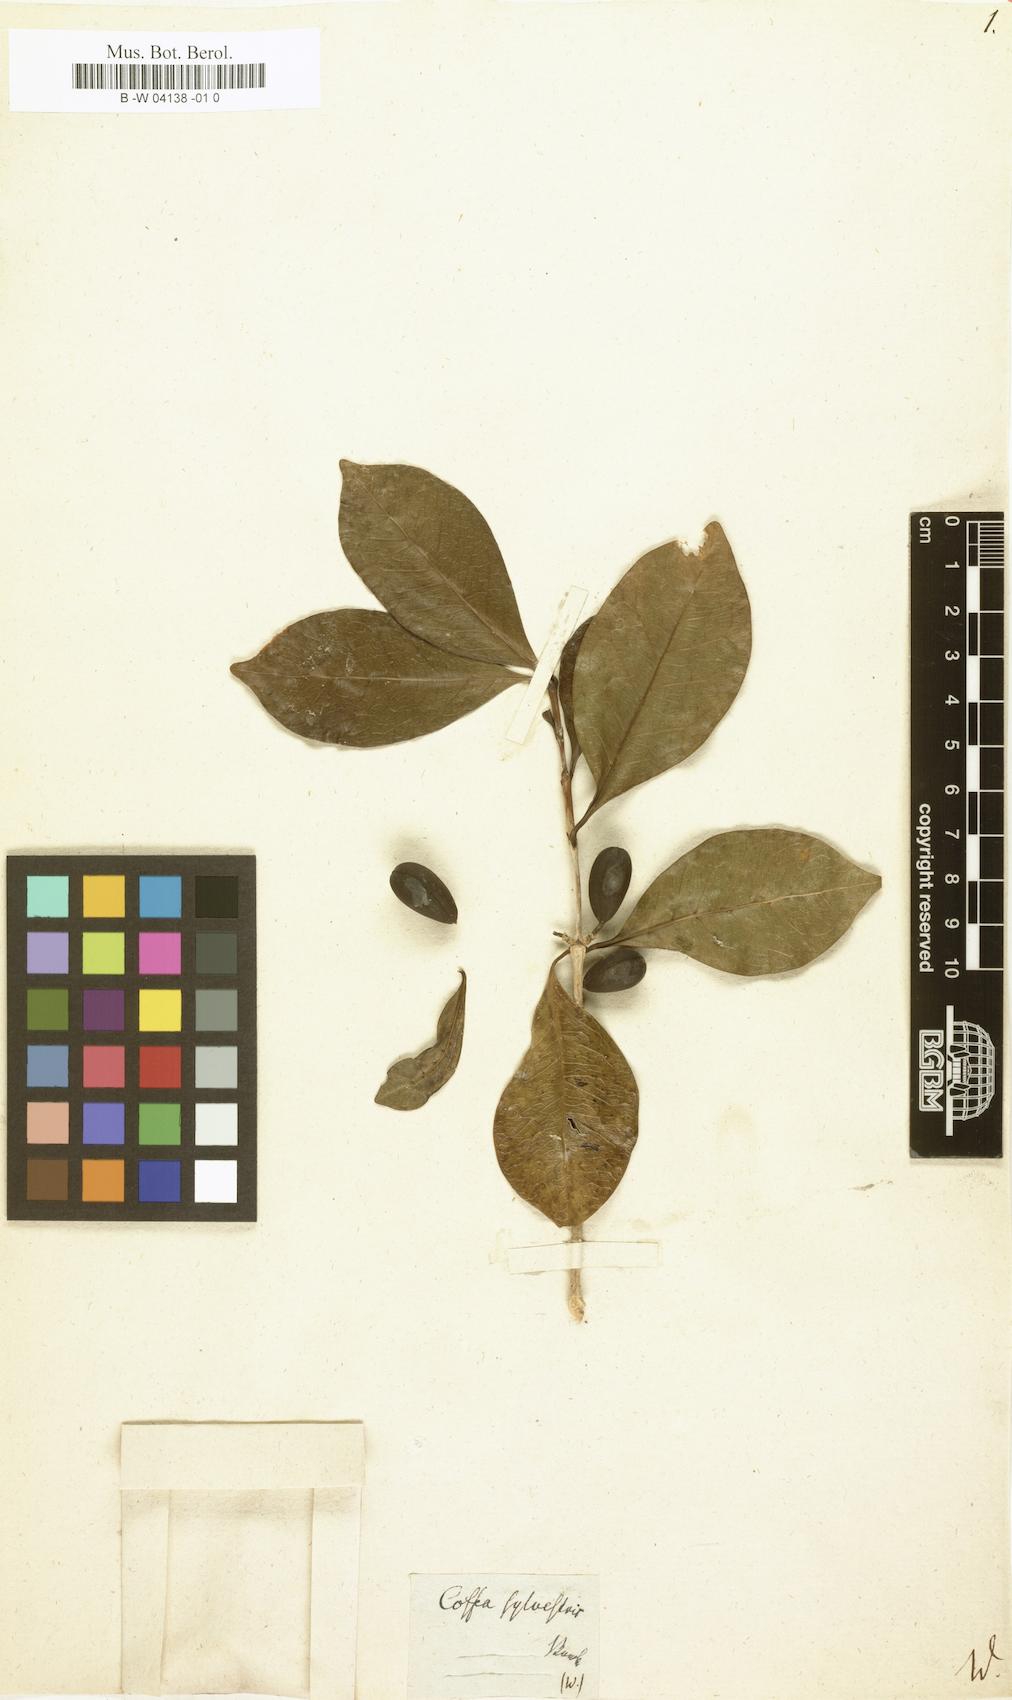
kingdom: Plantae
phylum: Tracheophyta
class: Magnoliopsida
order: Gentianales
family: Rubiaceae
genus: Coffea
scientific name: Coffea mauritiana
